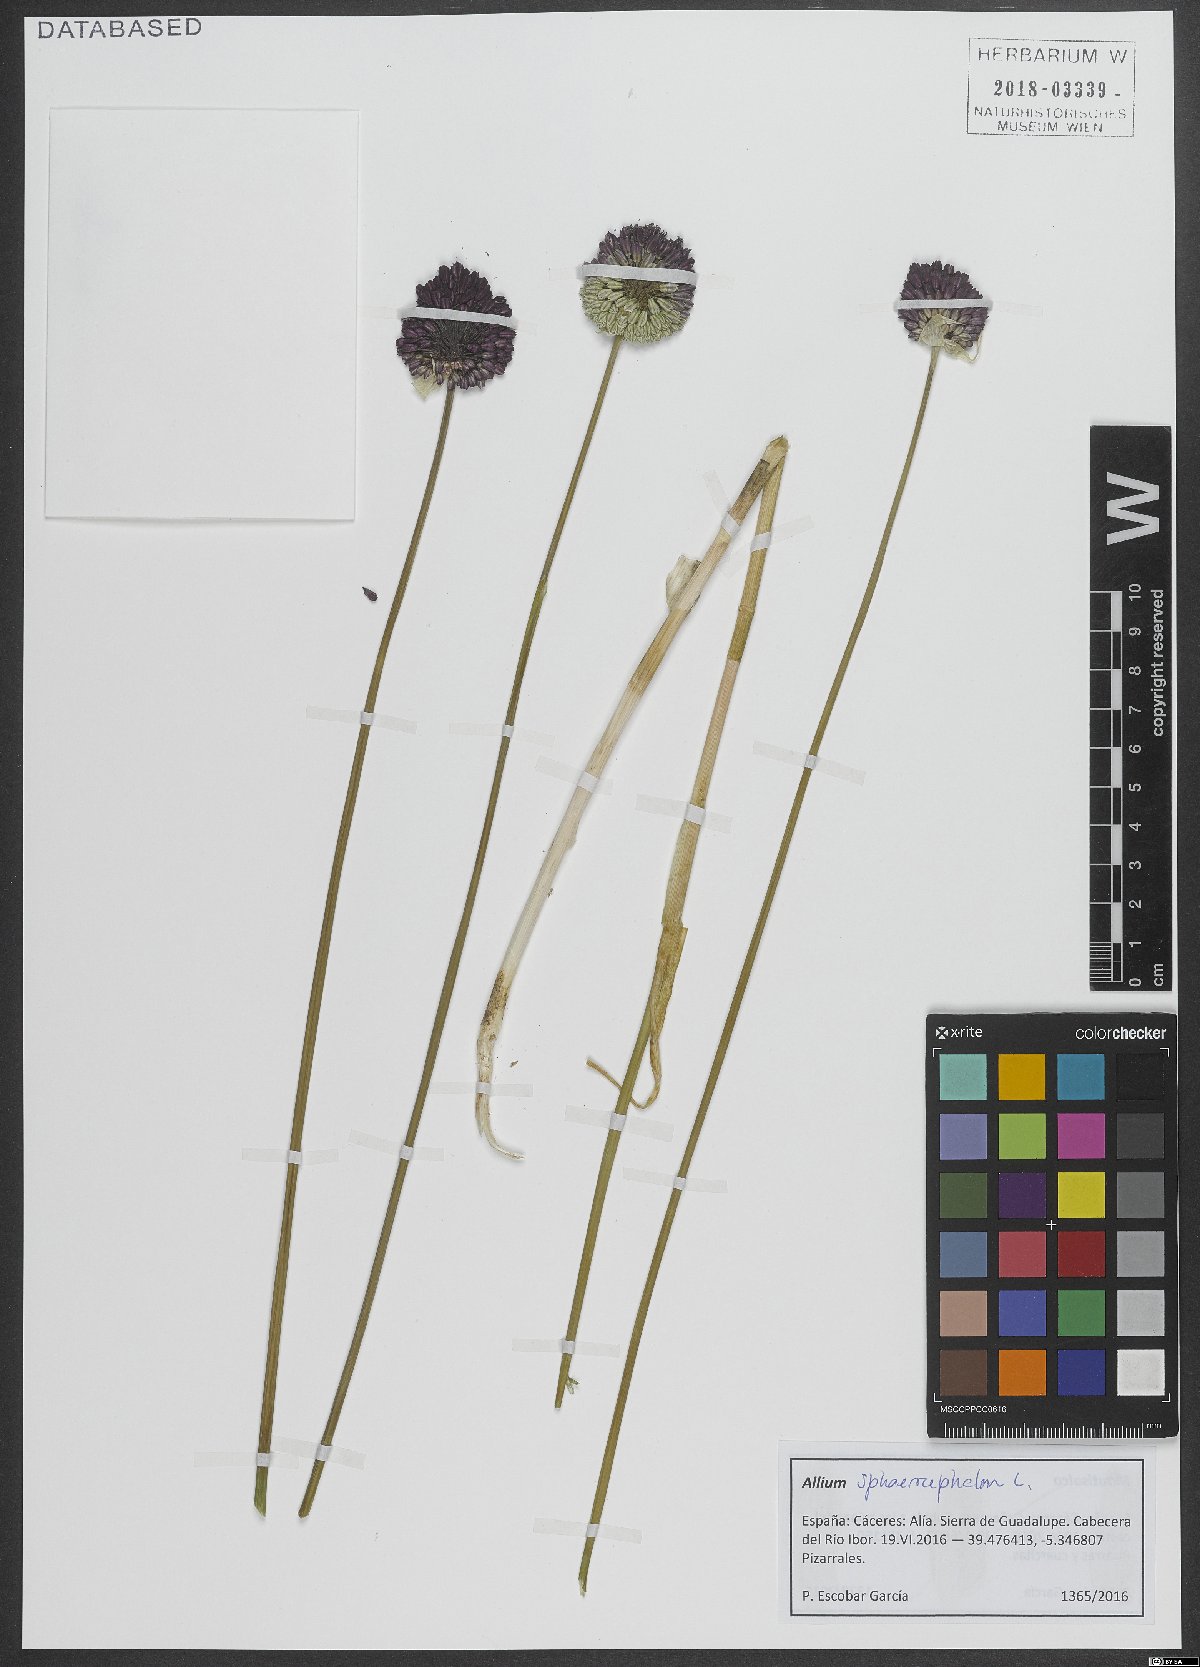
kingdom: Plantae
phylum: Tracheophyta
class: Liliopsida
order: Asparagales
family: Amaryllidaceae
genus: Allium
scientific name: Allium sphaerocephalon
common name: Round-headed leek
